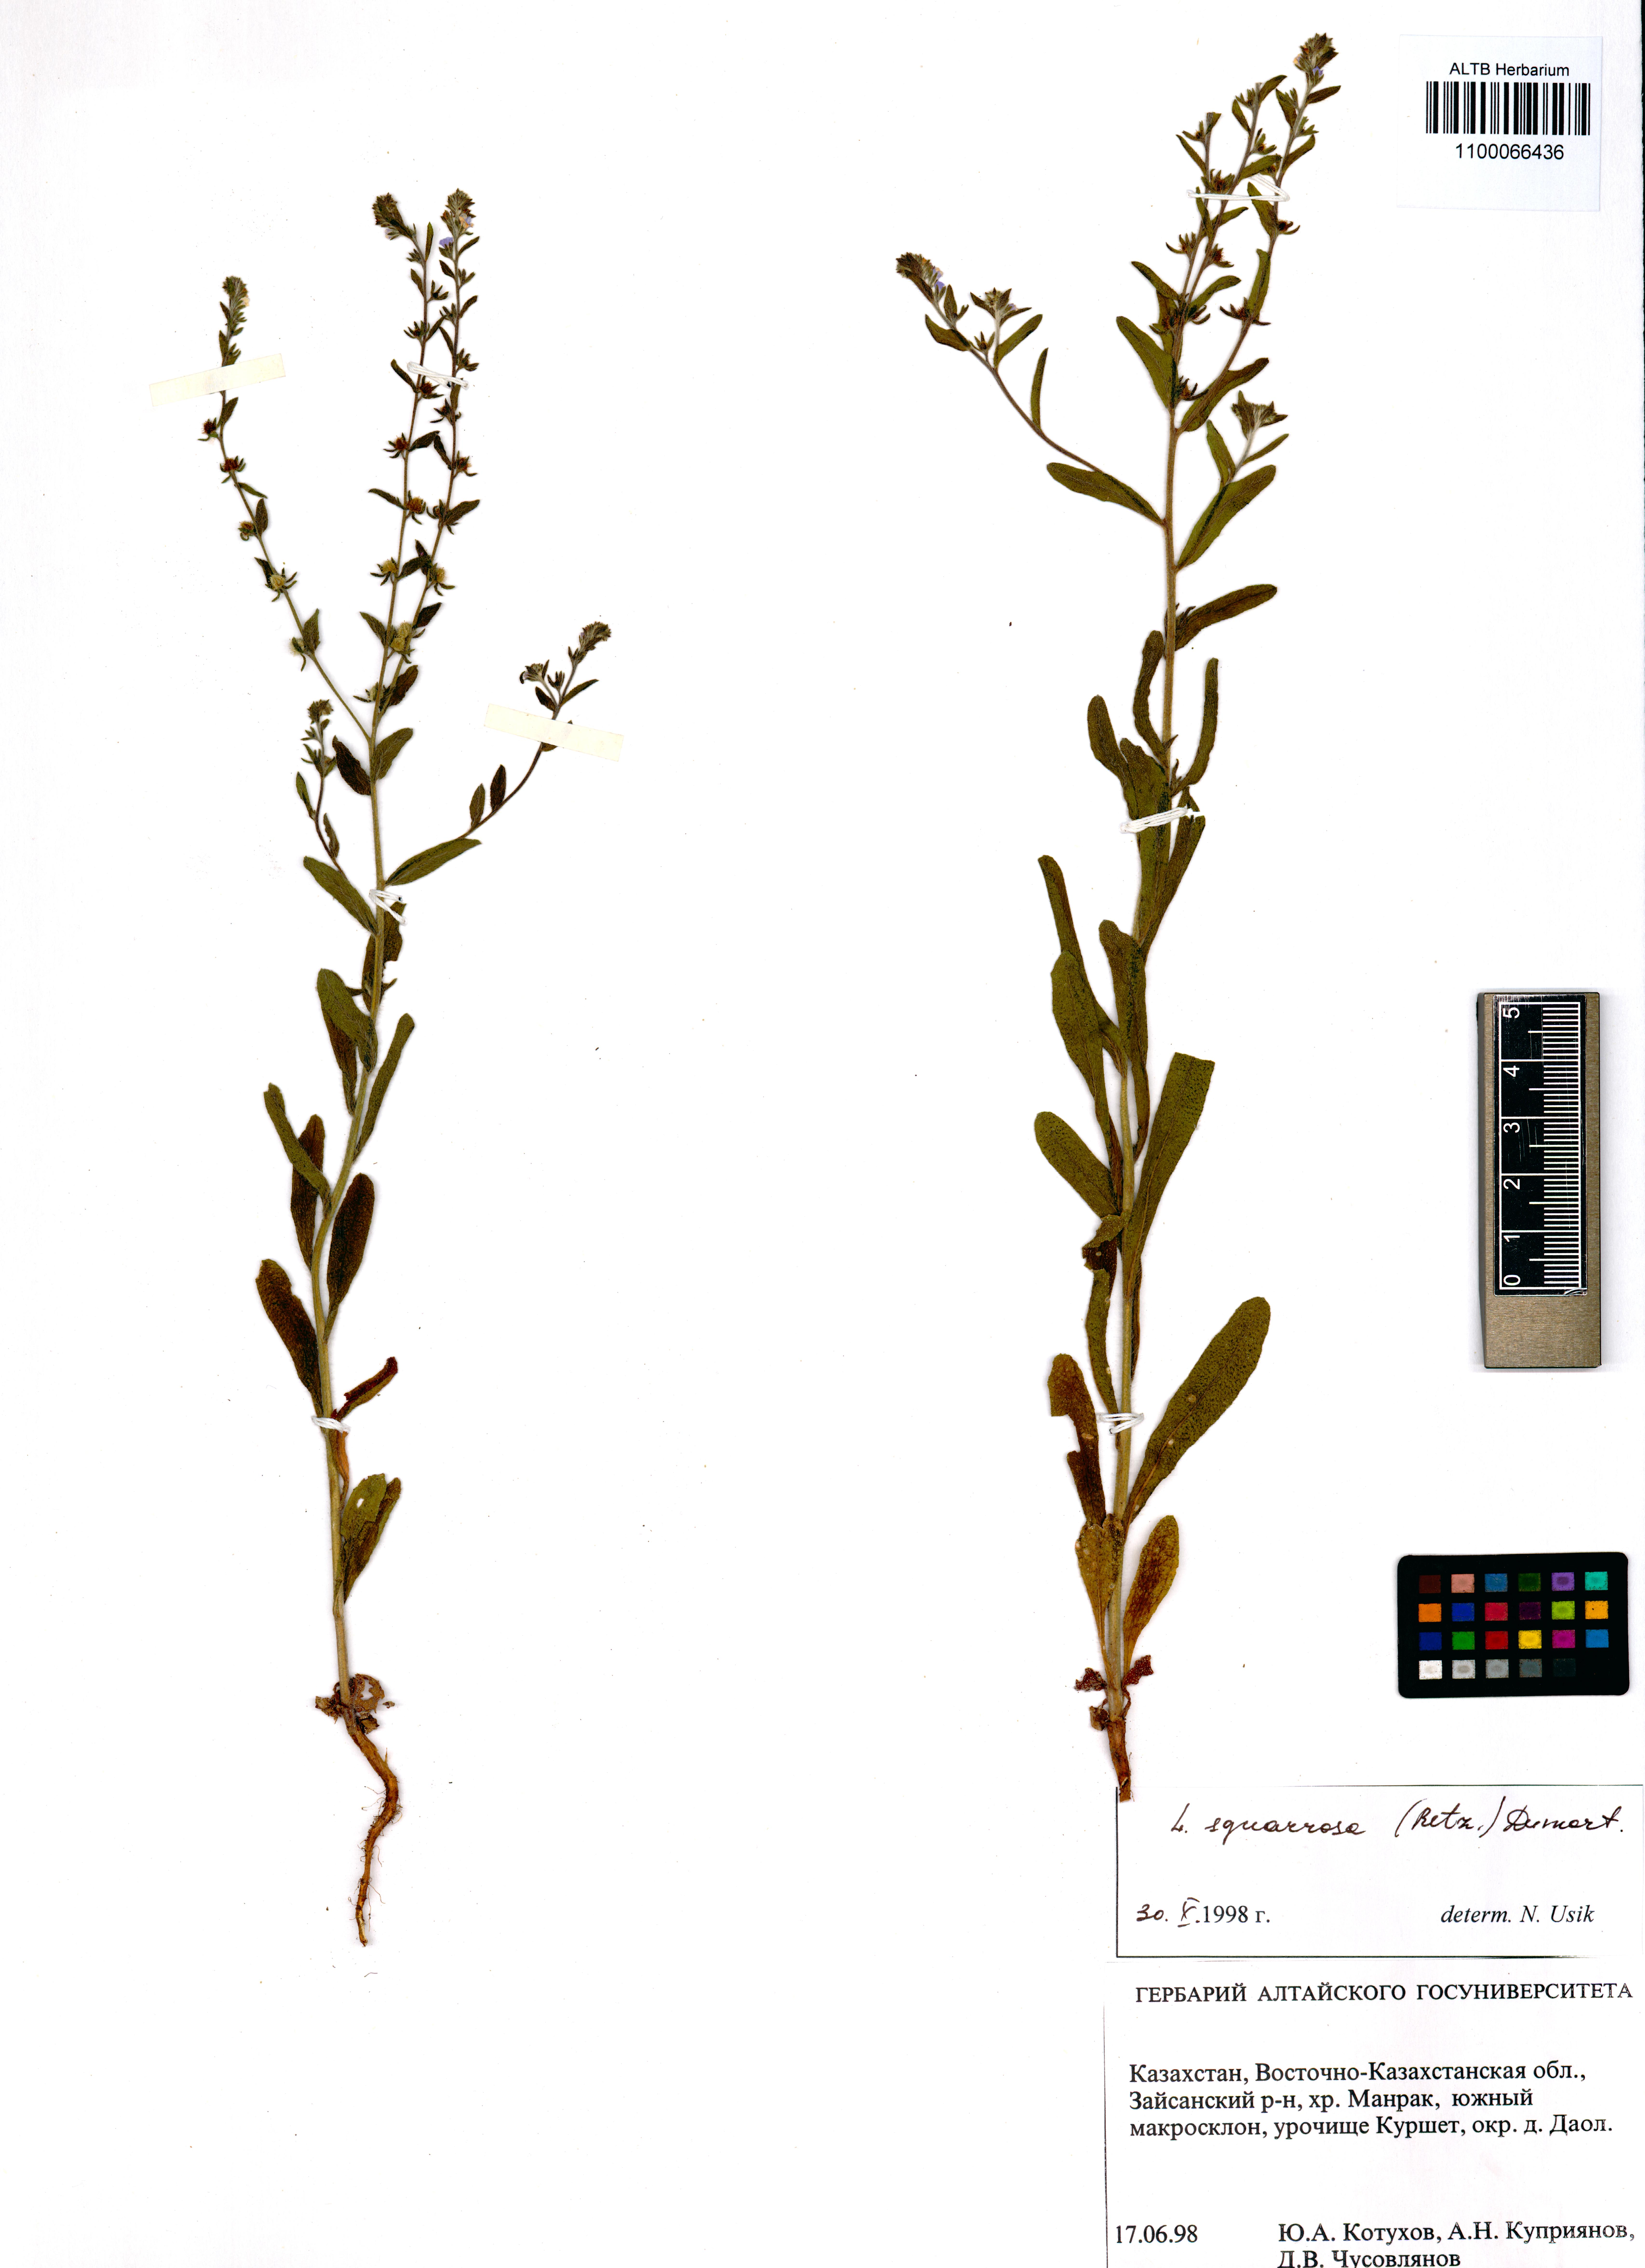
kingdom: Plantae
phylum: Tracheophyta
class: Magnoliopsida
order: Boraginales
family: Boraginaceae
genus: Lappula
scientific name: Lappula squarrosa
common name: European stickseed
